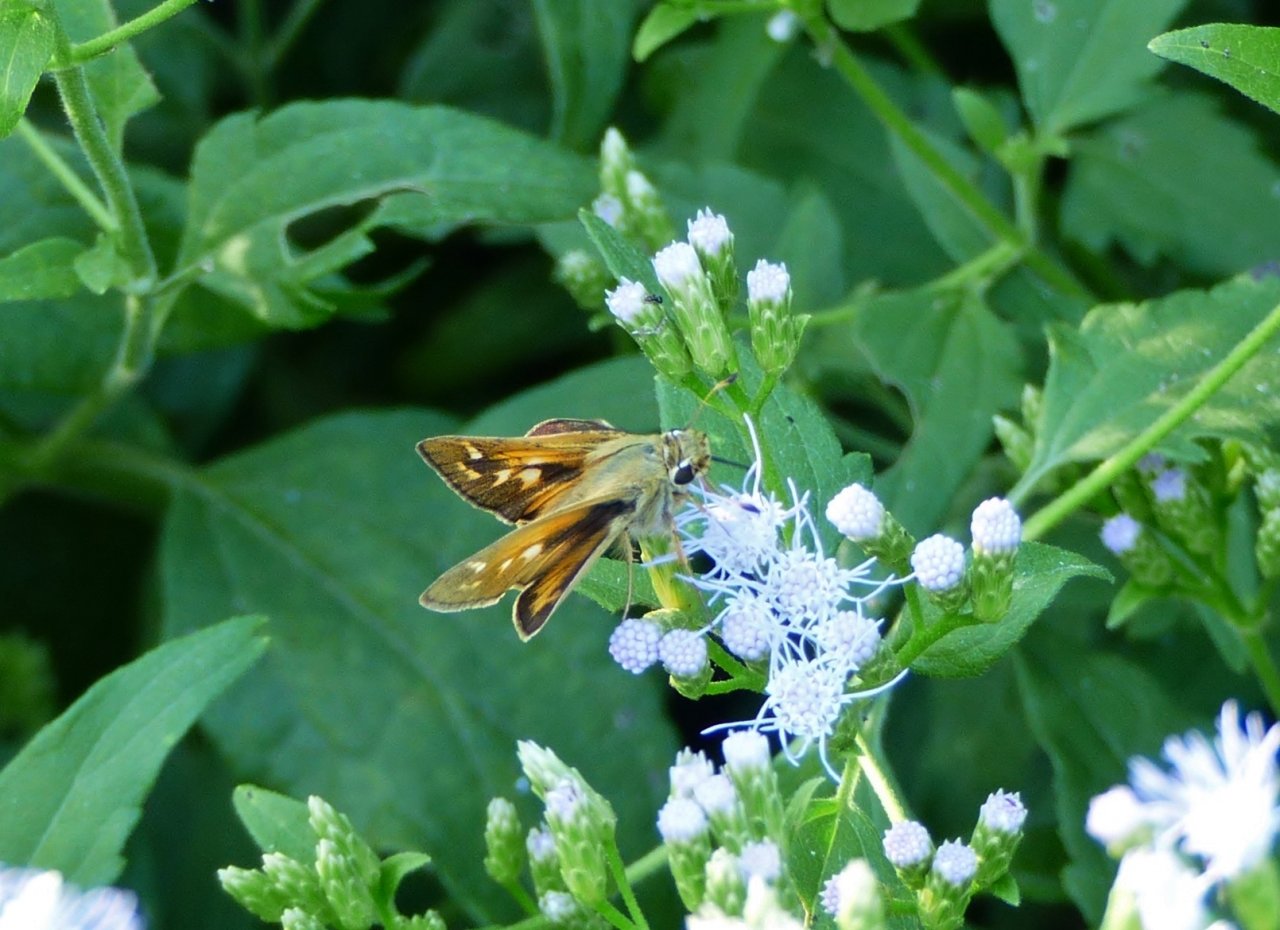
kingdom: Animalia
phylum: Arthropoda
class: Insecta
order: Lepidoptera
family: Hesperiidae
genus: Wallengrenia
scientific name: Wallengrenia otho
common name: Southern Broken-Dash
